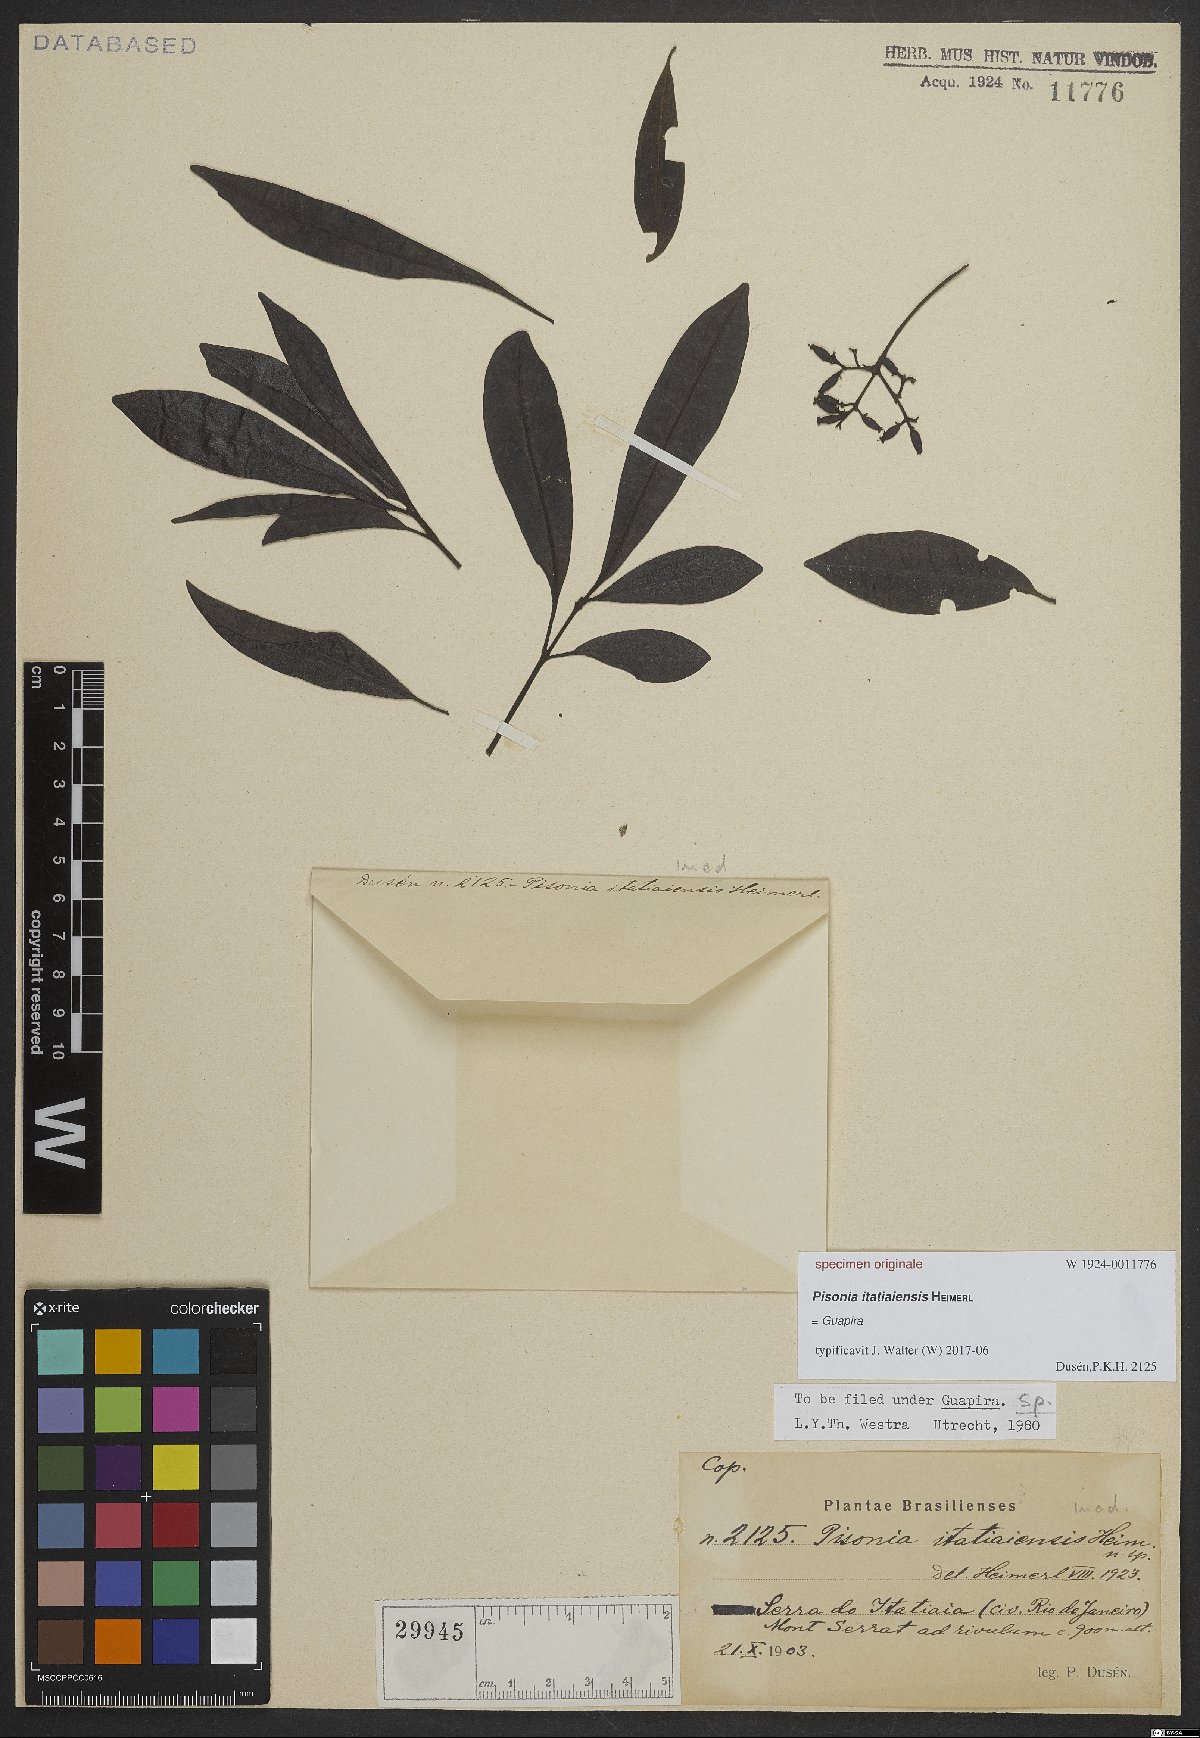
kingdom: Plantae
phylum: Tracheophyta
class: Magnoliopsida
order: Caryophyllales
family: Nyctaginaceae
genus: Guapira
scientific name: Guapira
